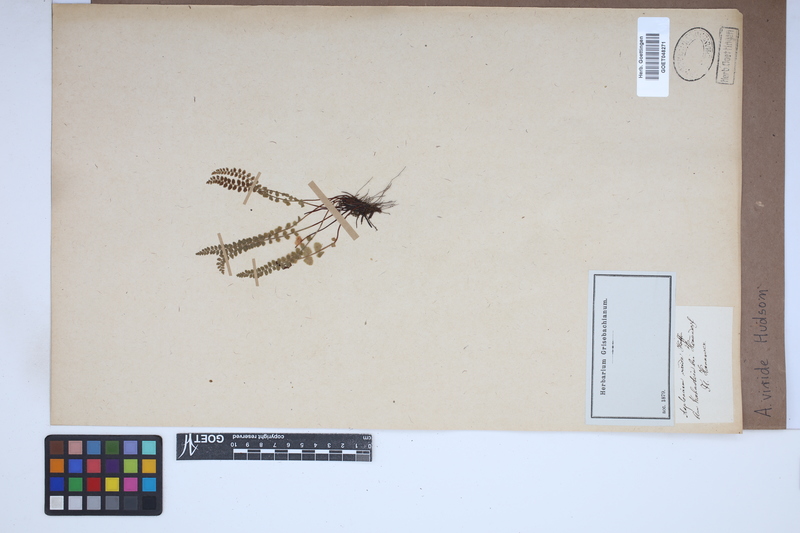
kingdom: Plantae
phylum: Tracheophyta
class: Polypodiopsida
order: Polypodiales
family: Aspleniaceae
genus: Asplenium
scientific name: Asplenium viride
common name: Green spleenwort
